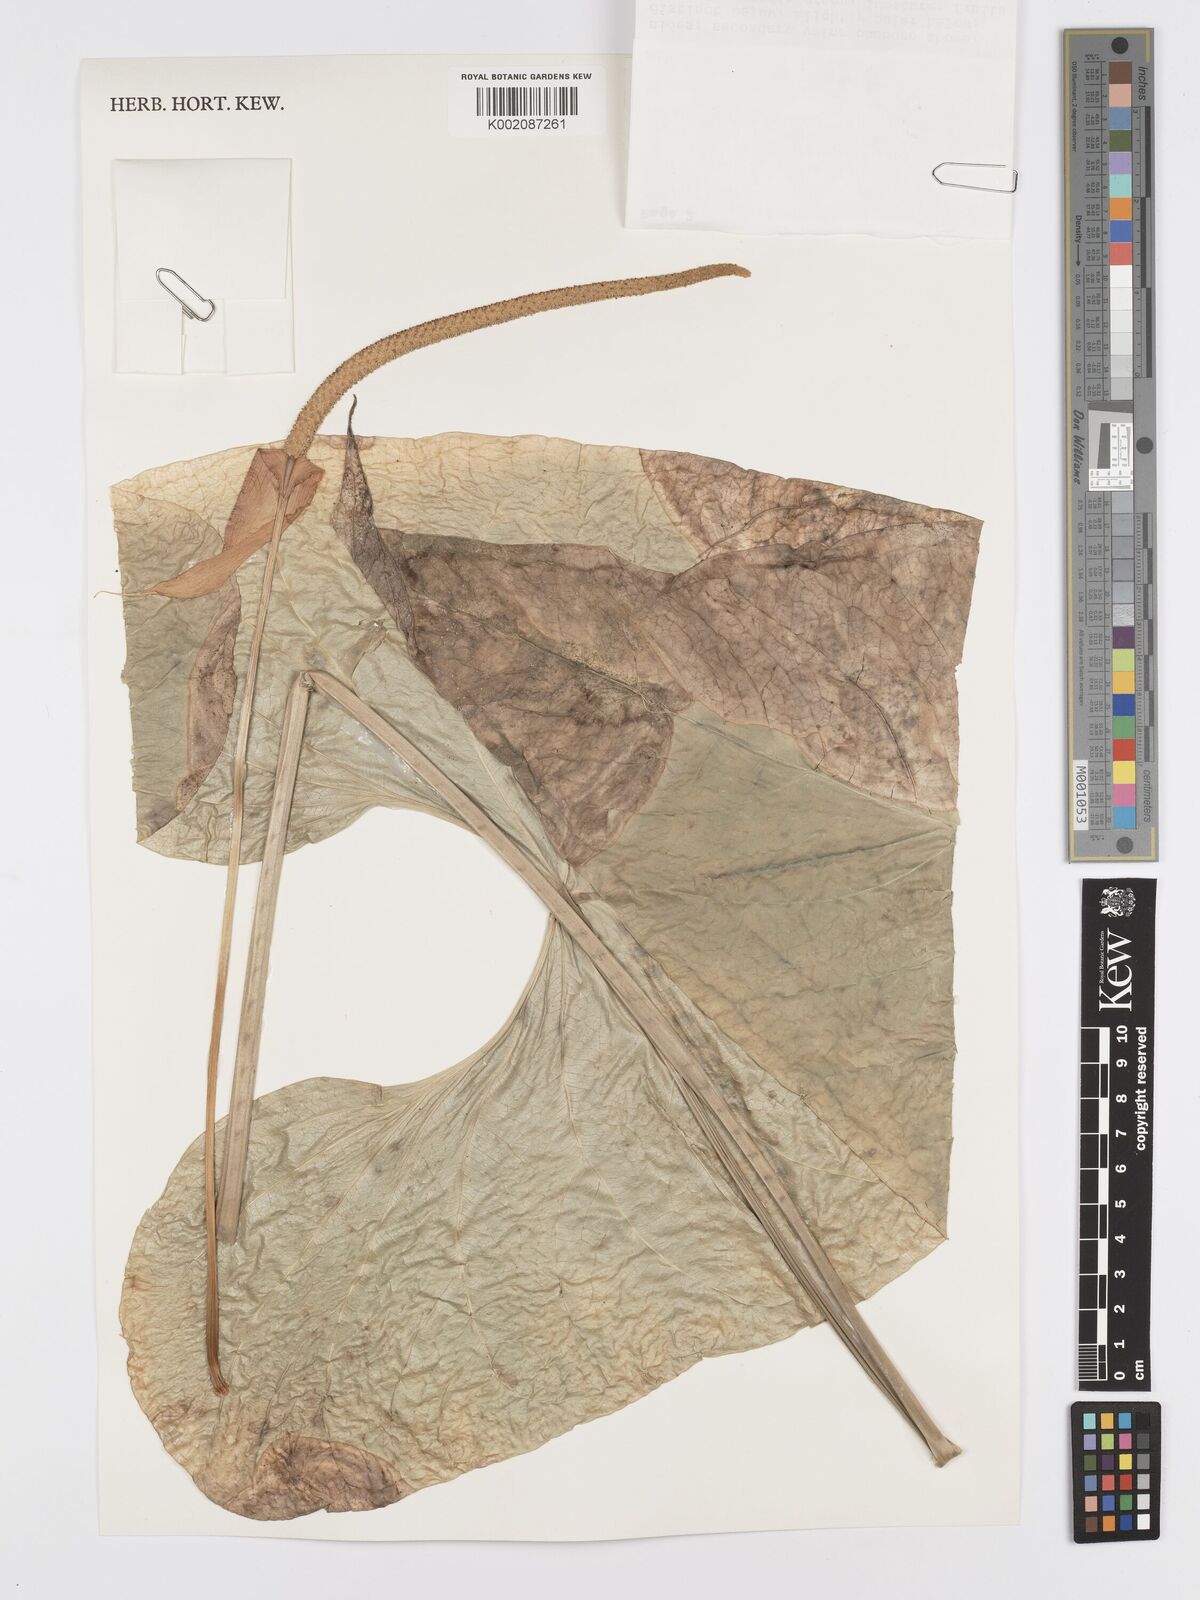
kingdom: Plantae
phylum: Tracheophyta
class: Liliopsida
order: Alismatales
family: Araceae
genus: Anthurium
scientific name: Anthurium watermaliense
